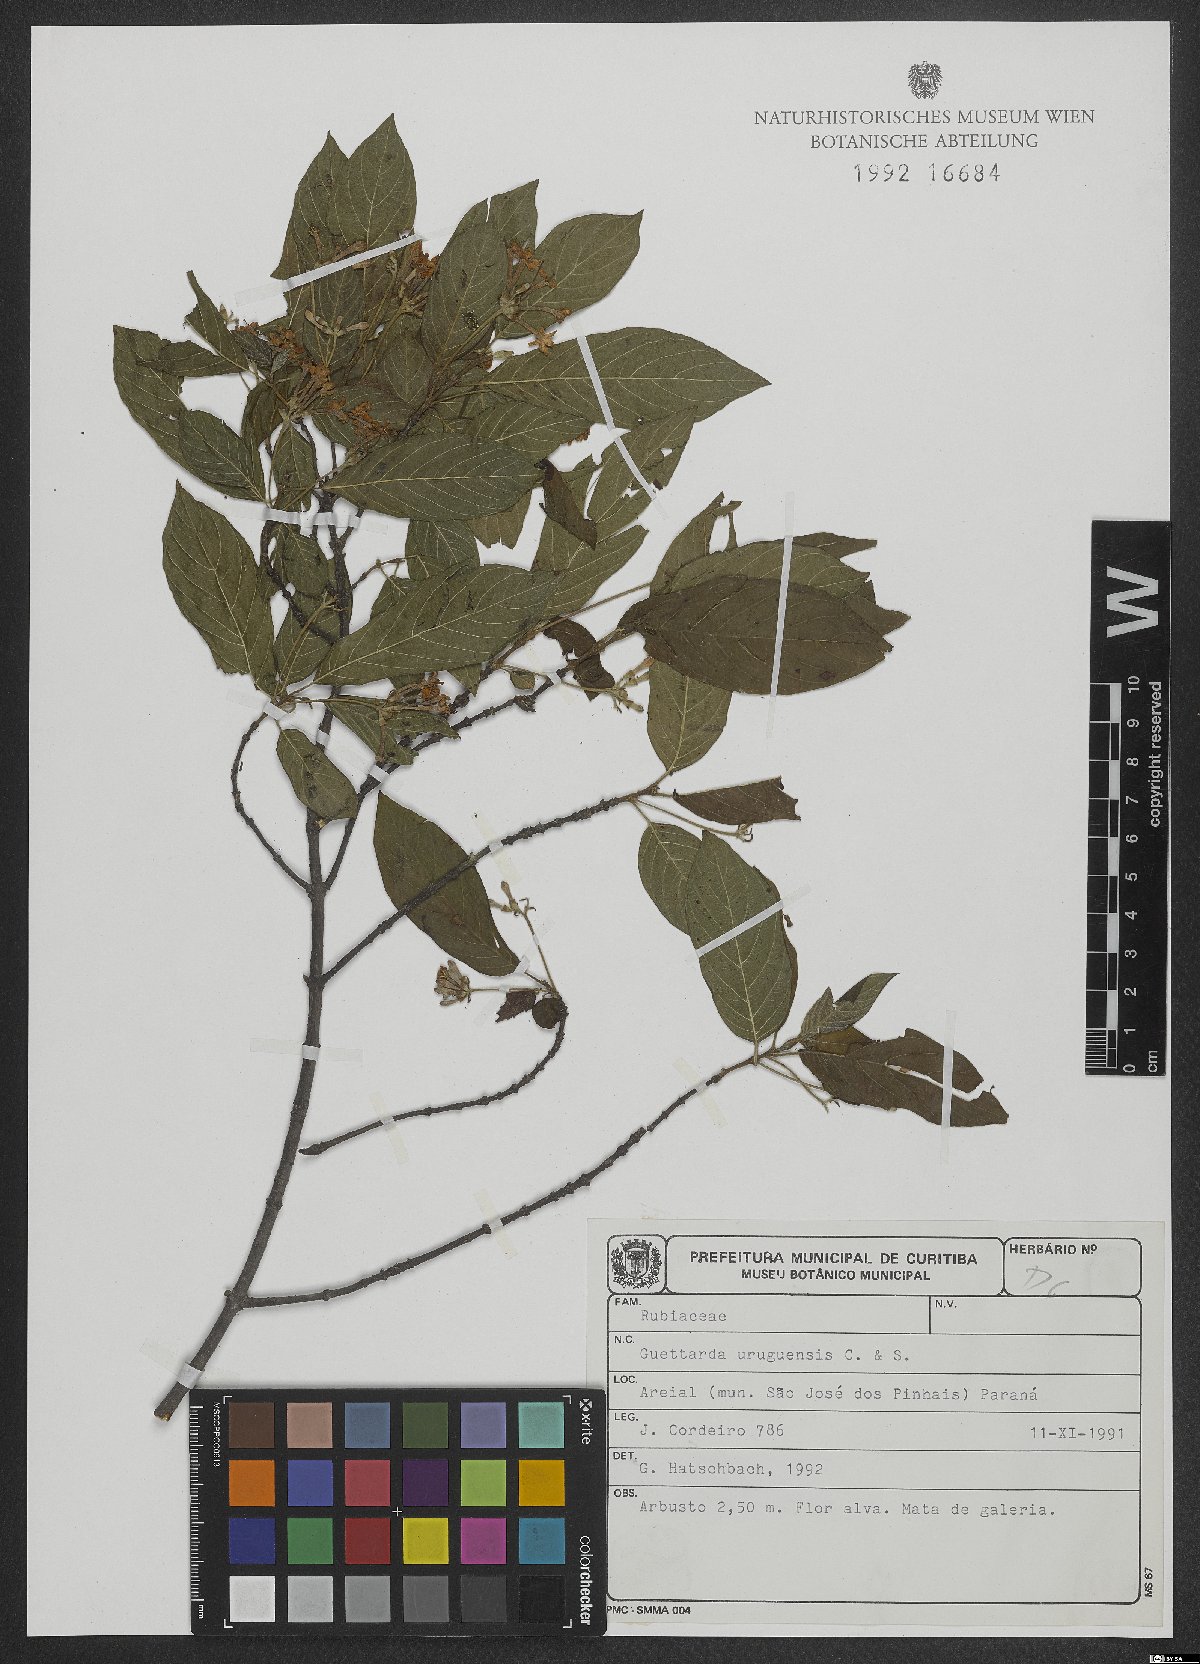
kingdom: Plantae
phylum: Tracheophyta
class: Magnoliopsida
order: Gentianales
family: Rubiaceae
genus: Guettarda
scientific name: Guettarda uruguensis
